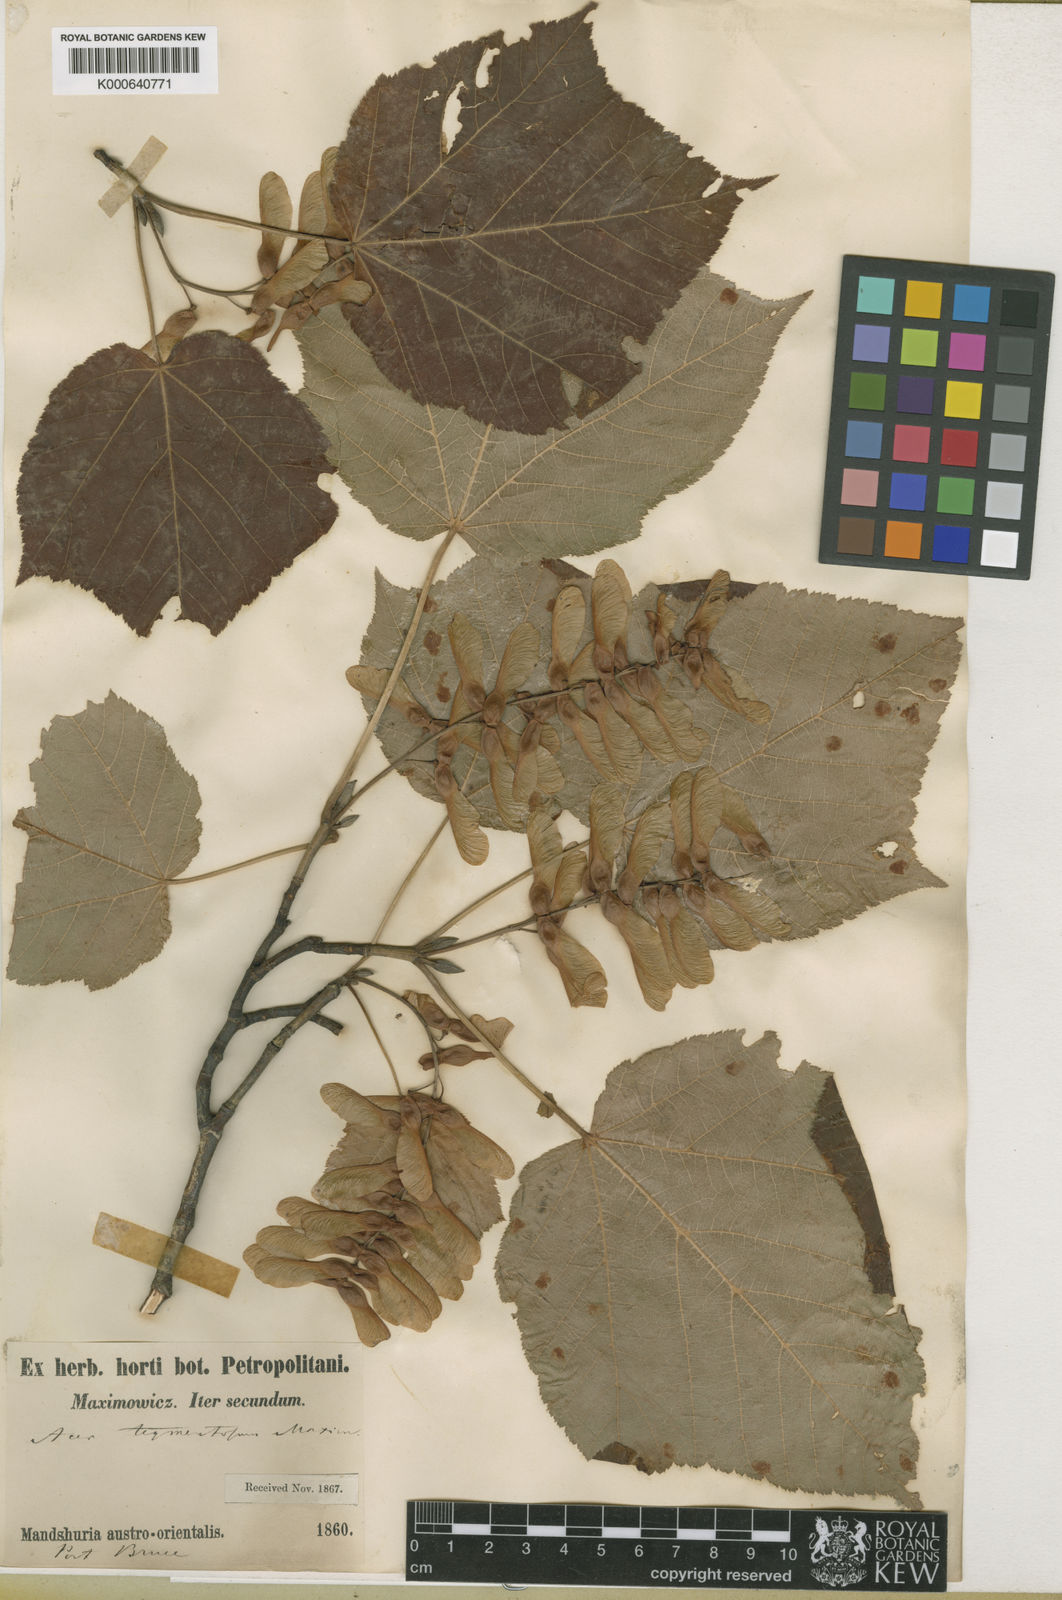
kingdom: Plantae
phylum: Tracheophyta
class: Magnoliopsida
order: Sapindales
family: Sapindaceae
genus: Acer
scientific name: Acer tegmentosum
